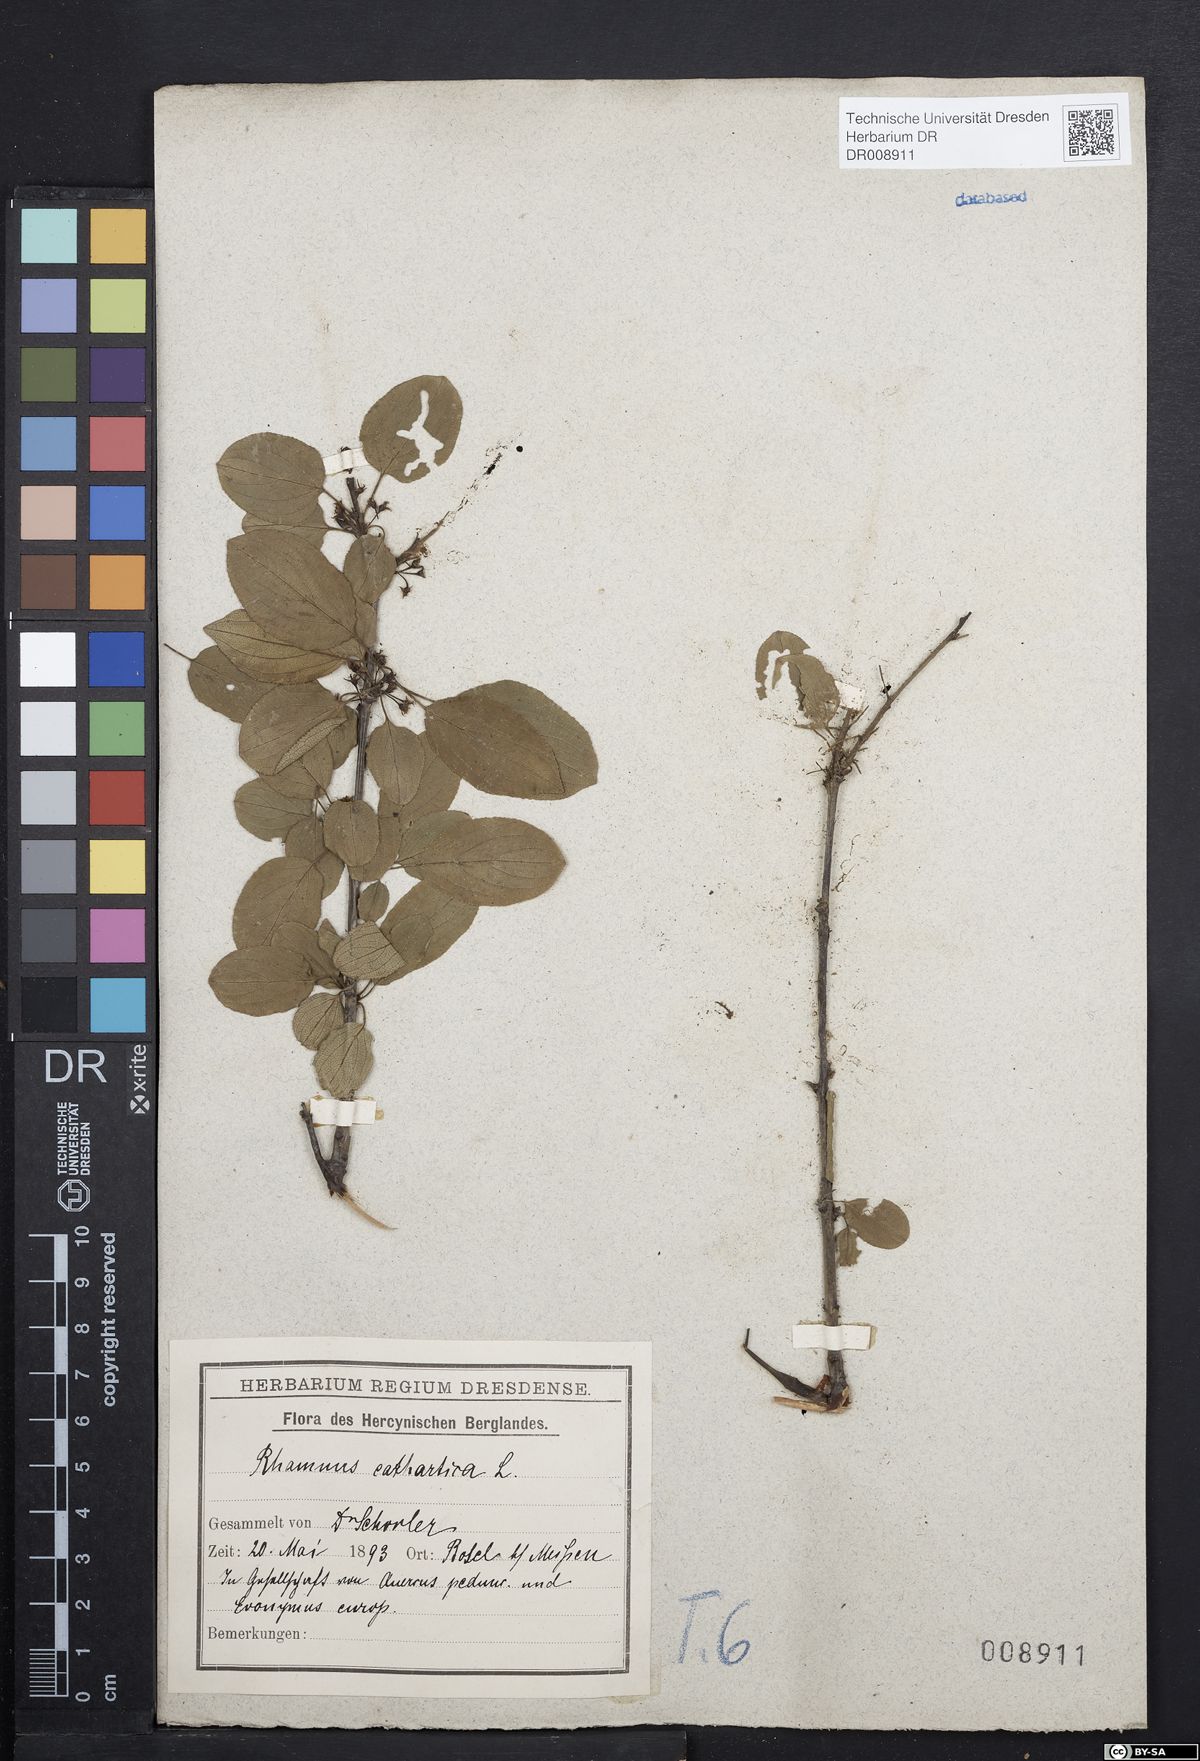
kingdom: Plantae
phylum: Tracheophyta
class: Magnoliopsida
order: Rosales
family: Rhamnaceae
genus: Rhamnus
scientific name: Rhamnus cathartica
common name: Common buckthorn
